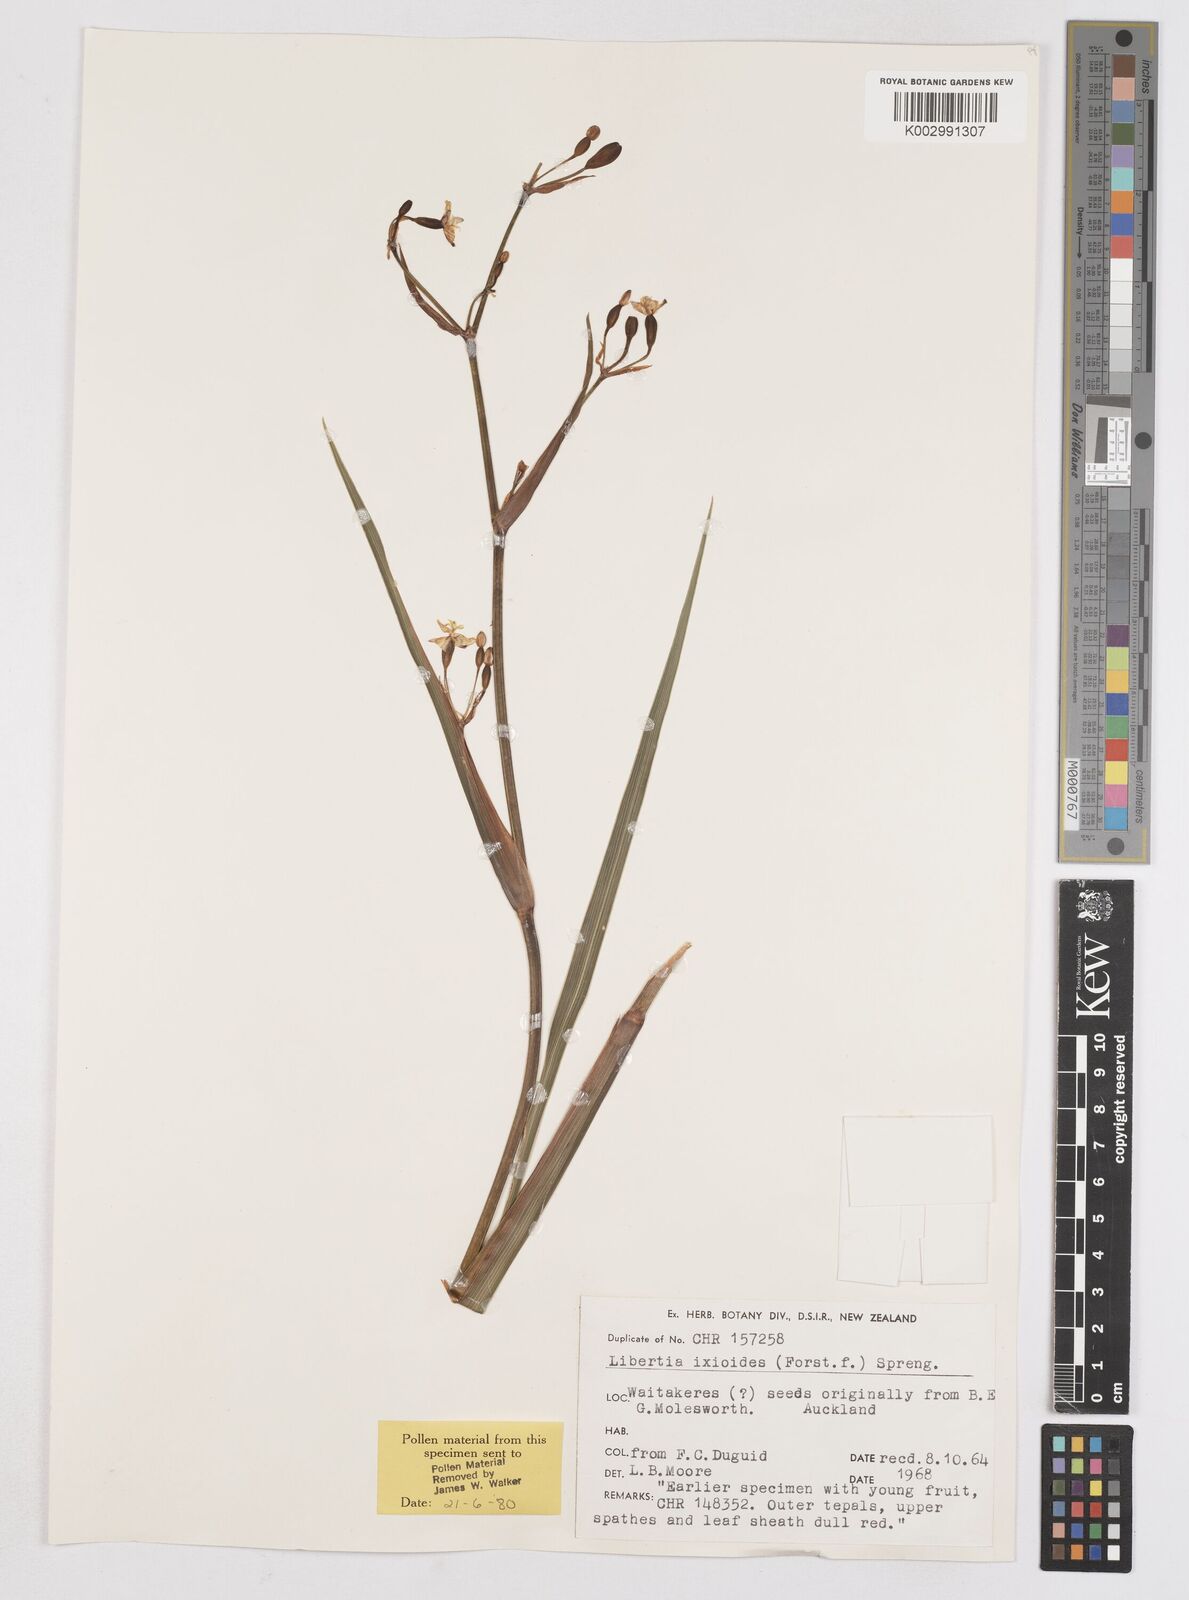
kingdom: Plantae
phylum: Tracheophyta
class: Liliopsida
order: Asparagales
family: Iridaceae
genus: Libertia
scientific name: Libertia ixioides
